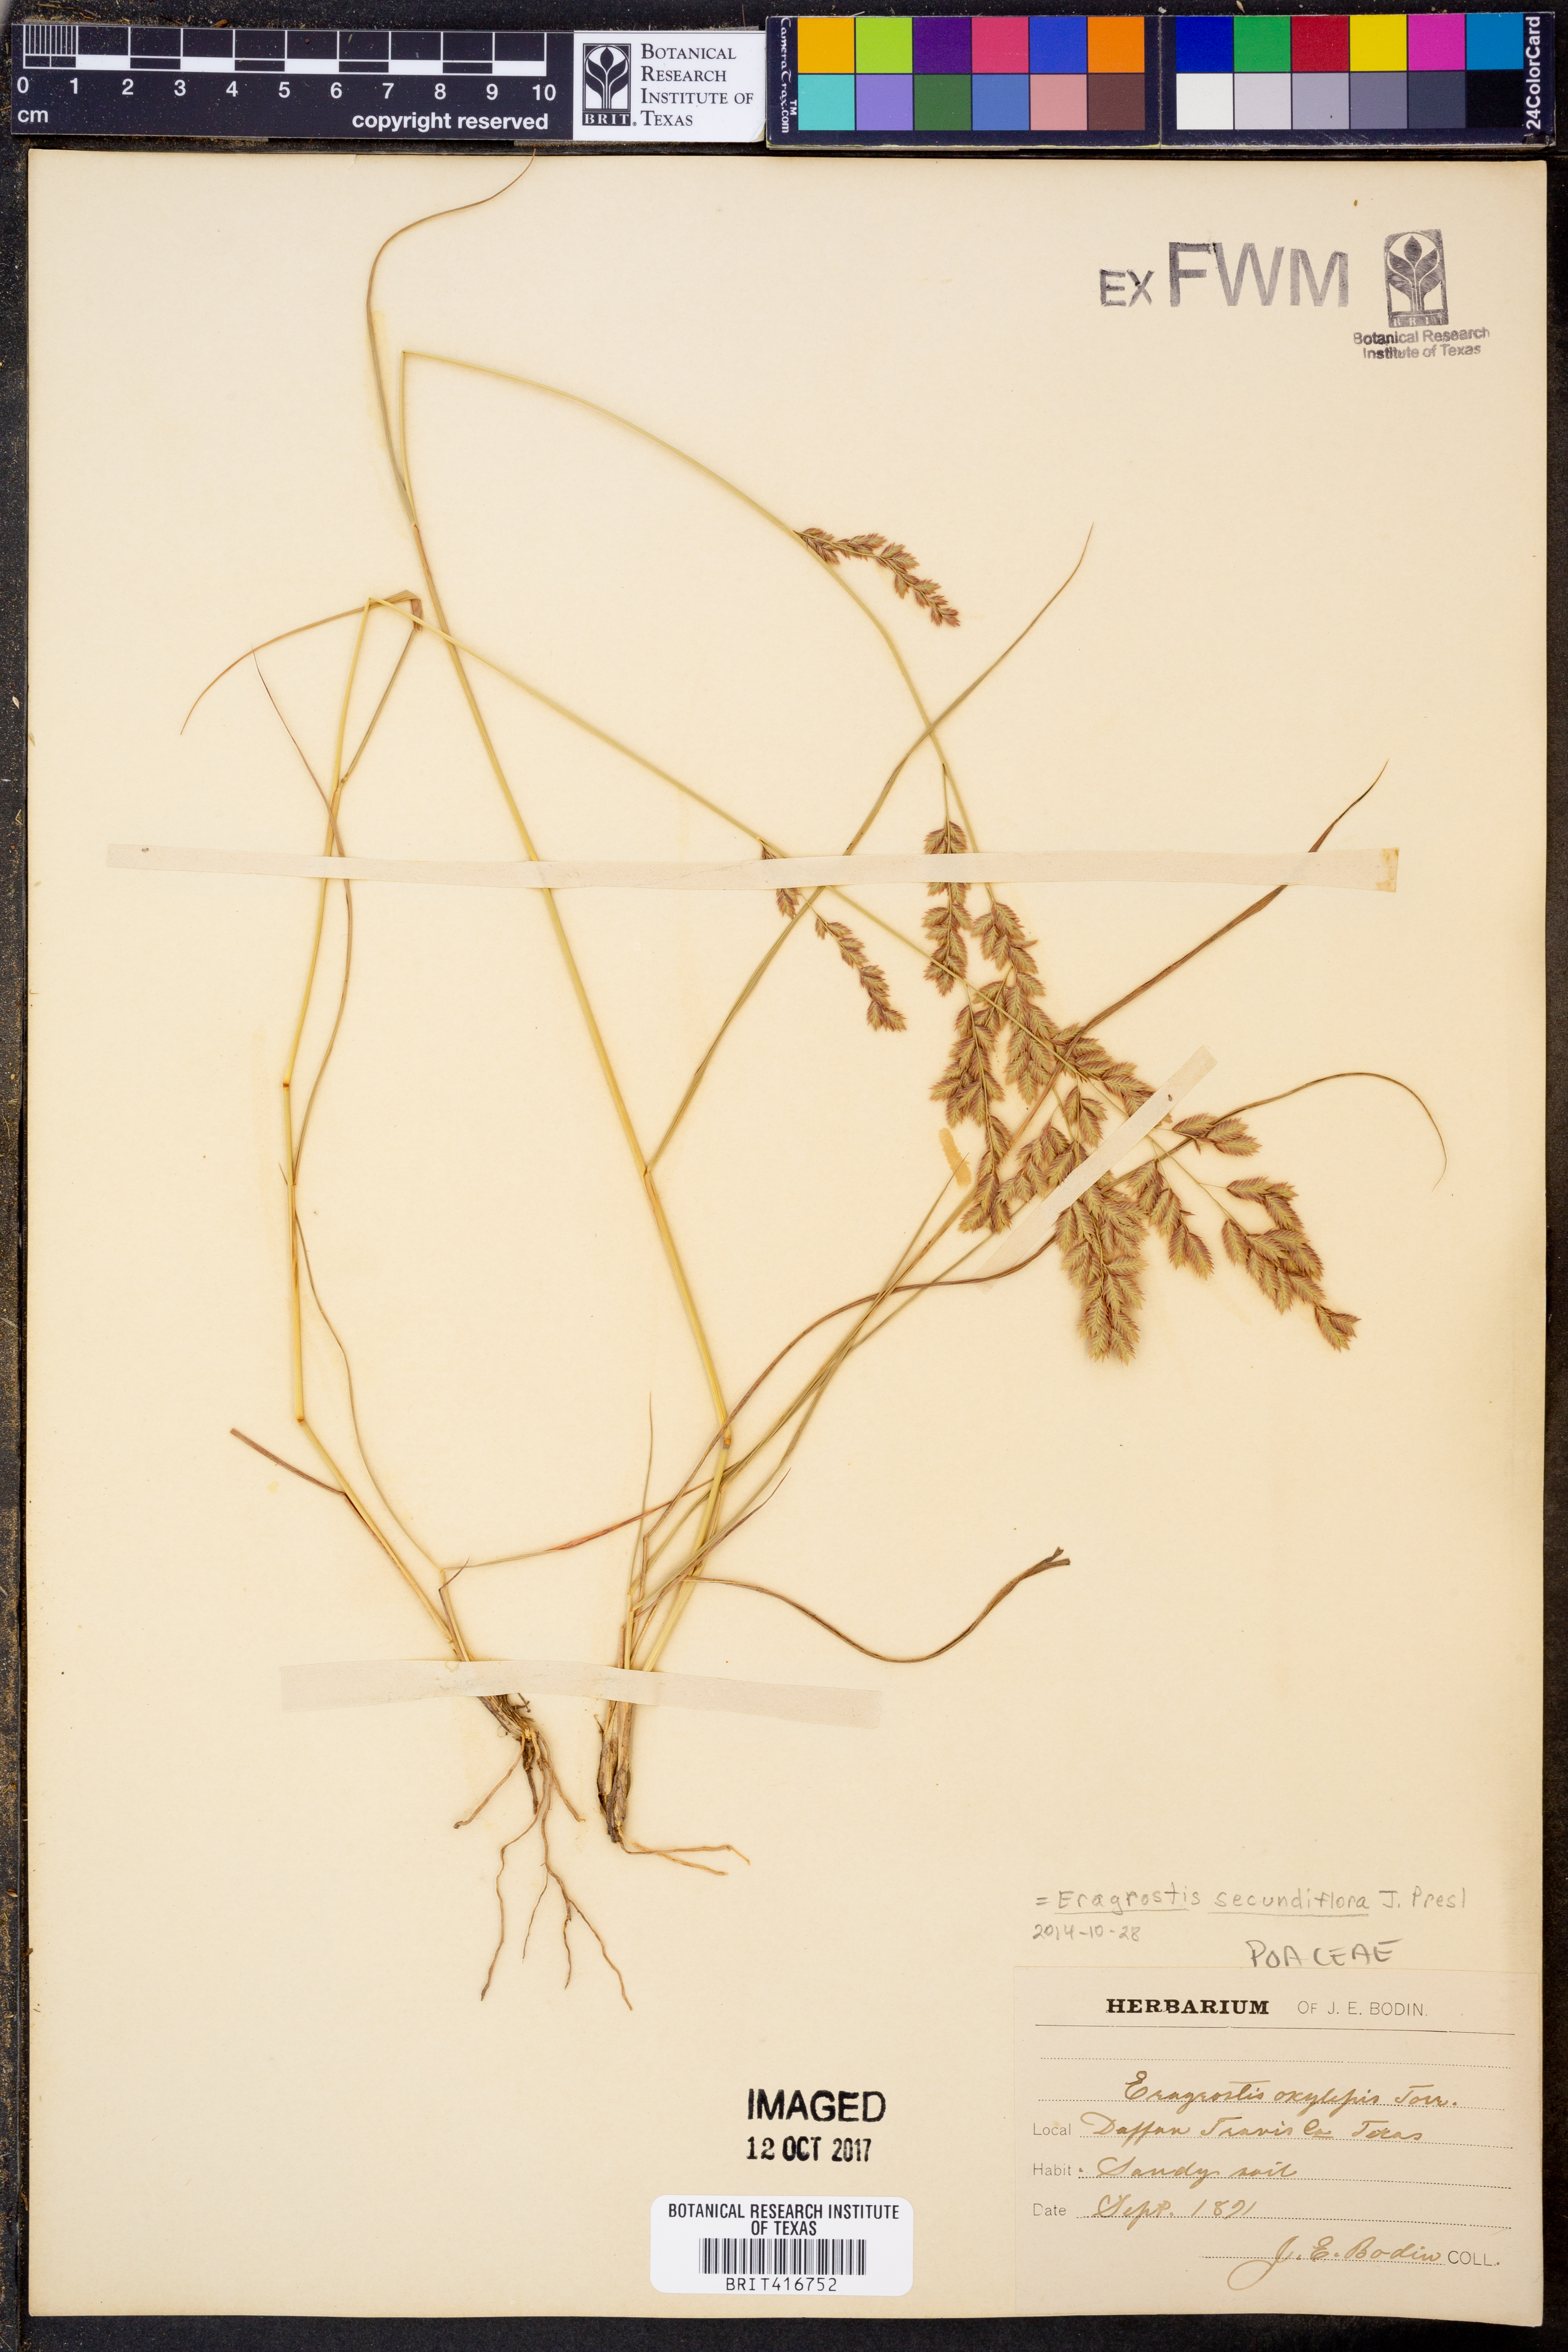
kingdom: Plantae
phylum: Tracheophyta
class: Liliopsida
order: Poales
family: Poaceae
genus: Eragrostis
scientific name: Eragrostis secundiflora
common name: Red love grass
